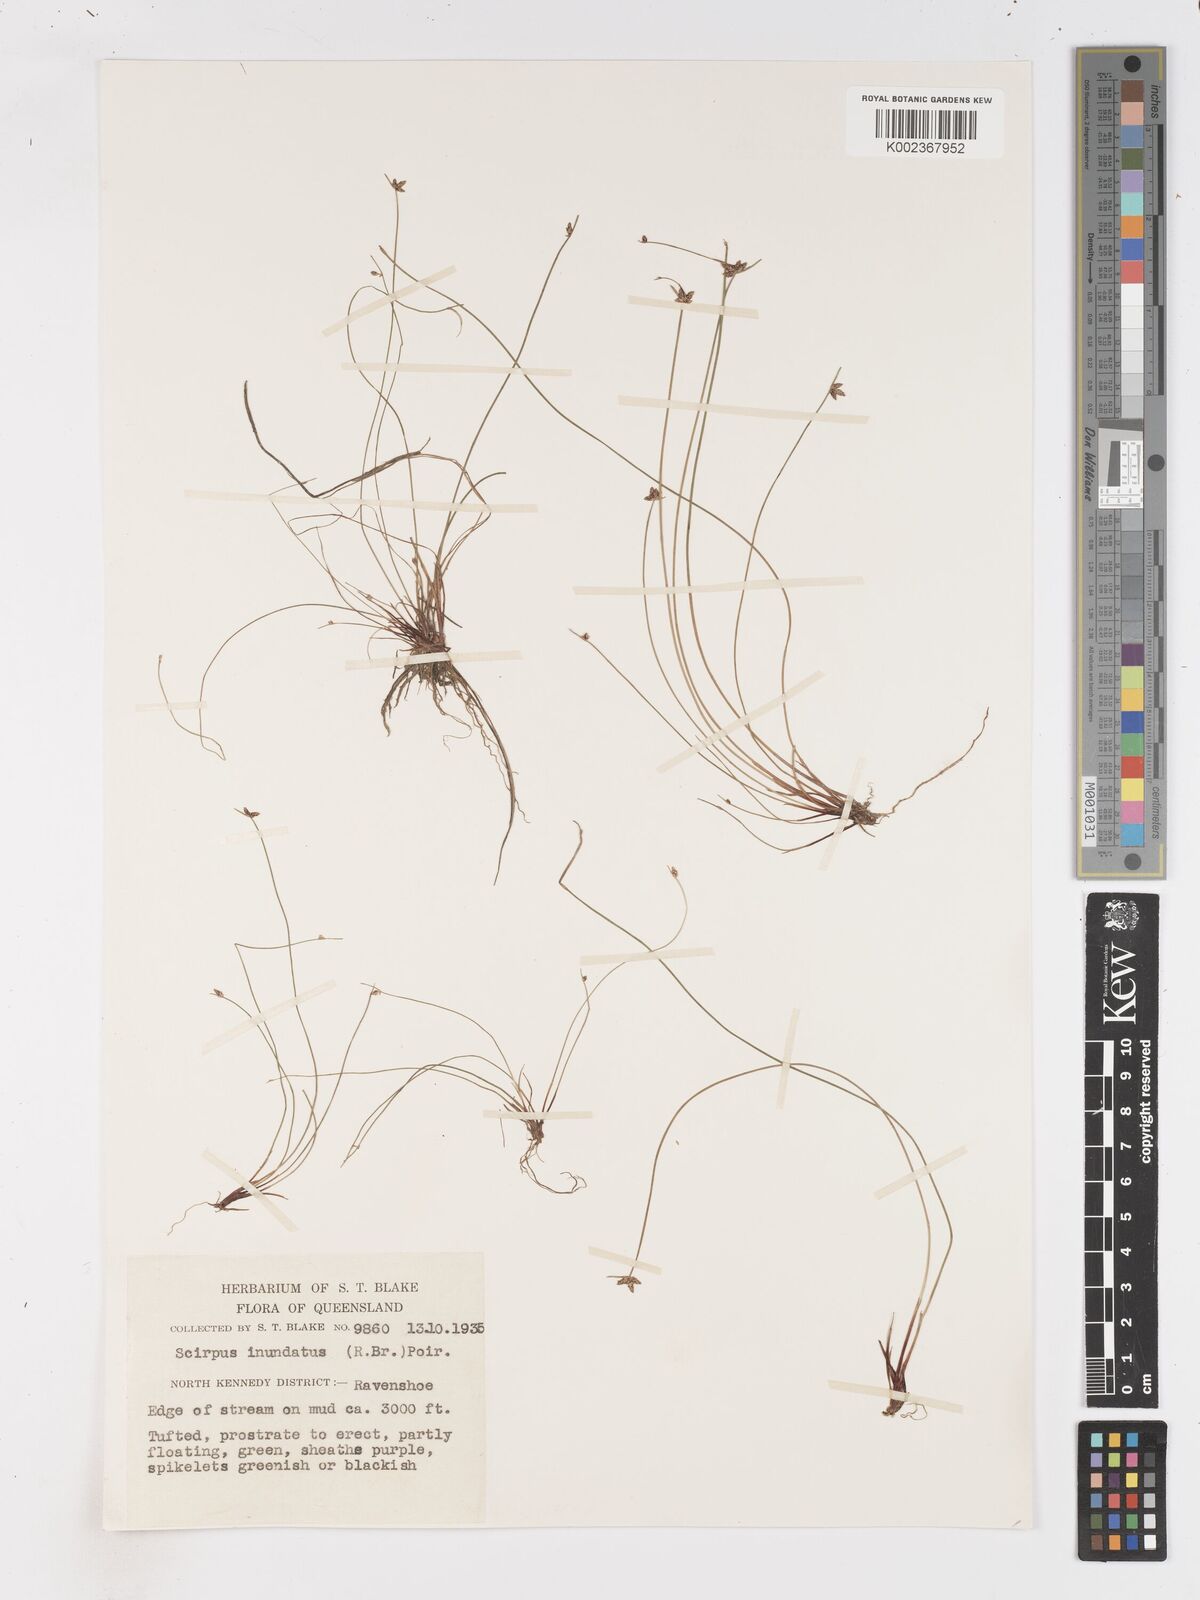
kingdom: Plantae
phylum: Tracheophyta
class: Liliopsida
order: Poales
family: Cyperaceae
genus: Isolepis
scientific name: Isolepis inundata
